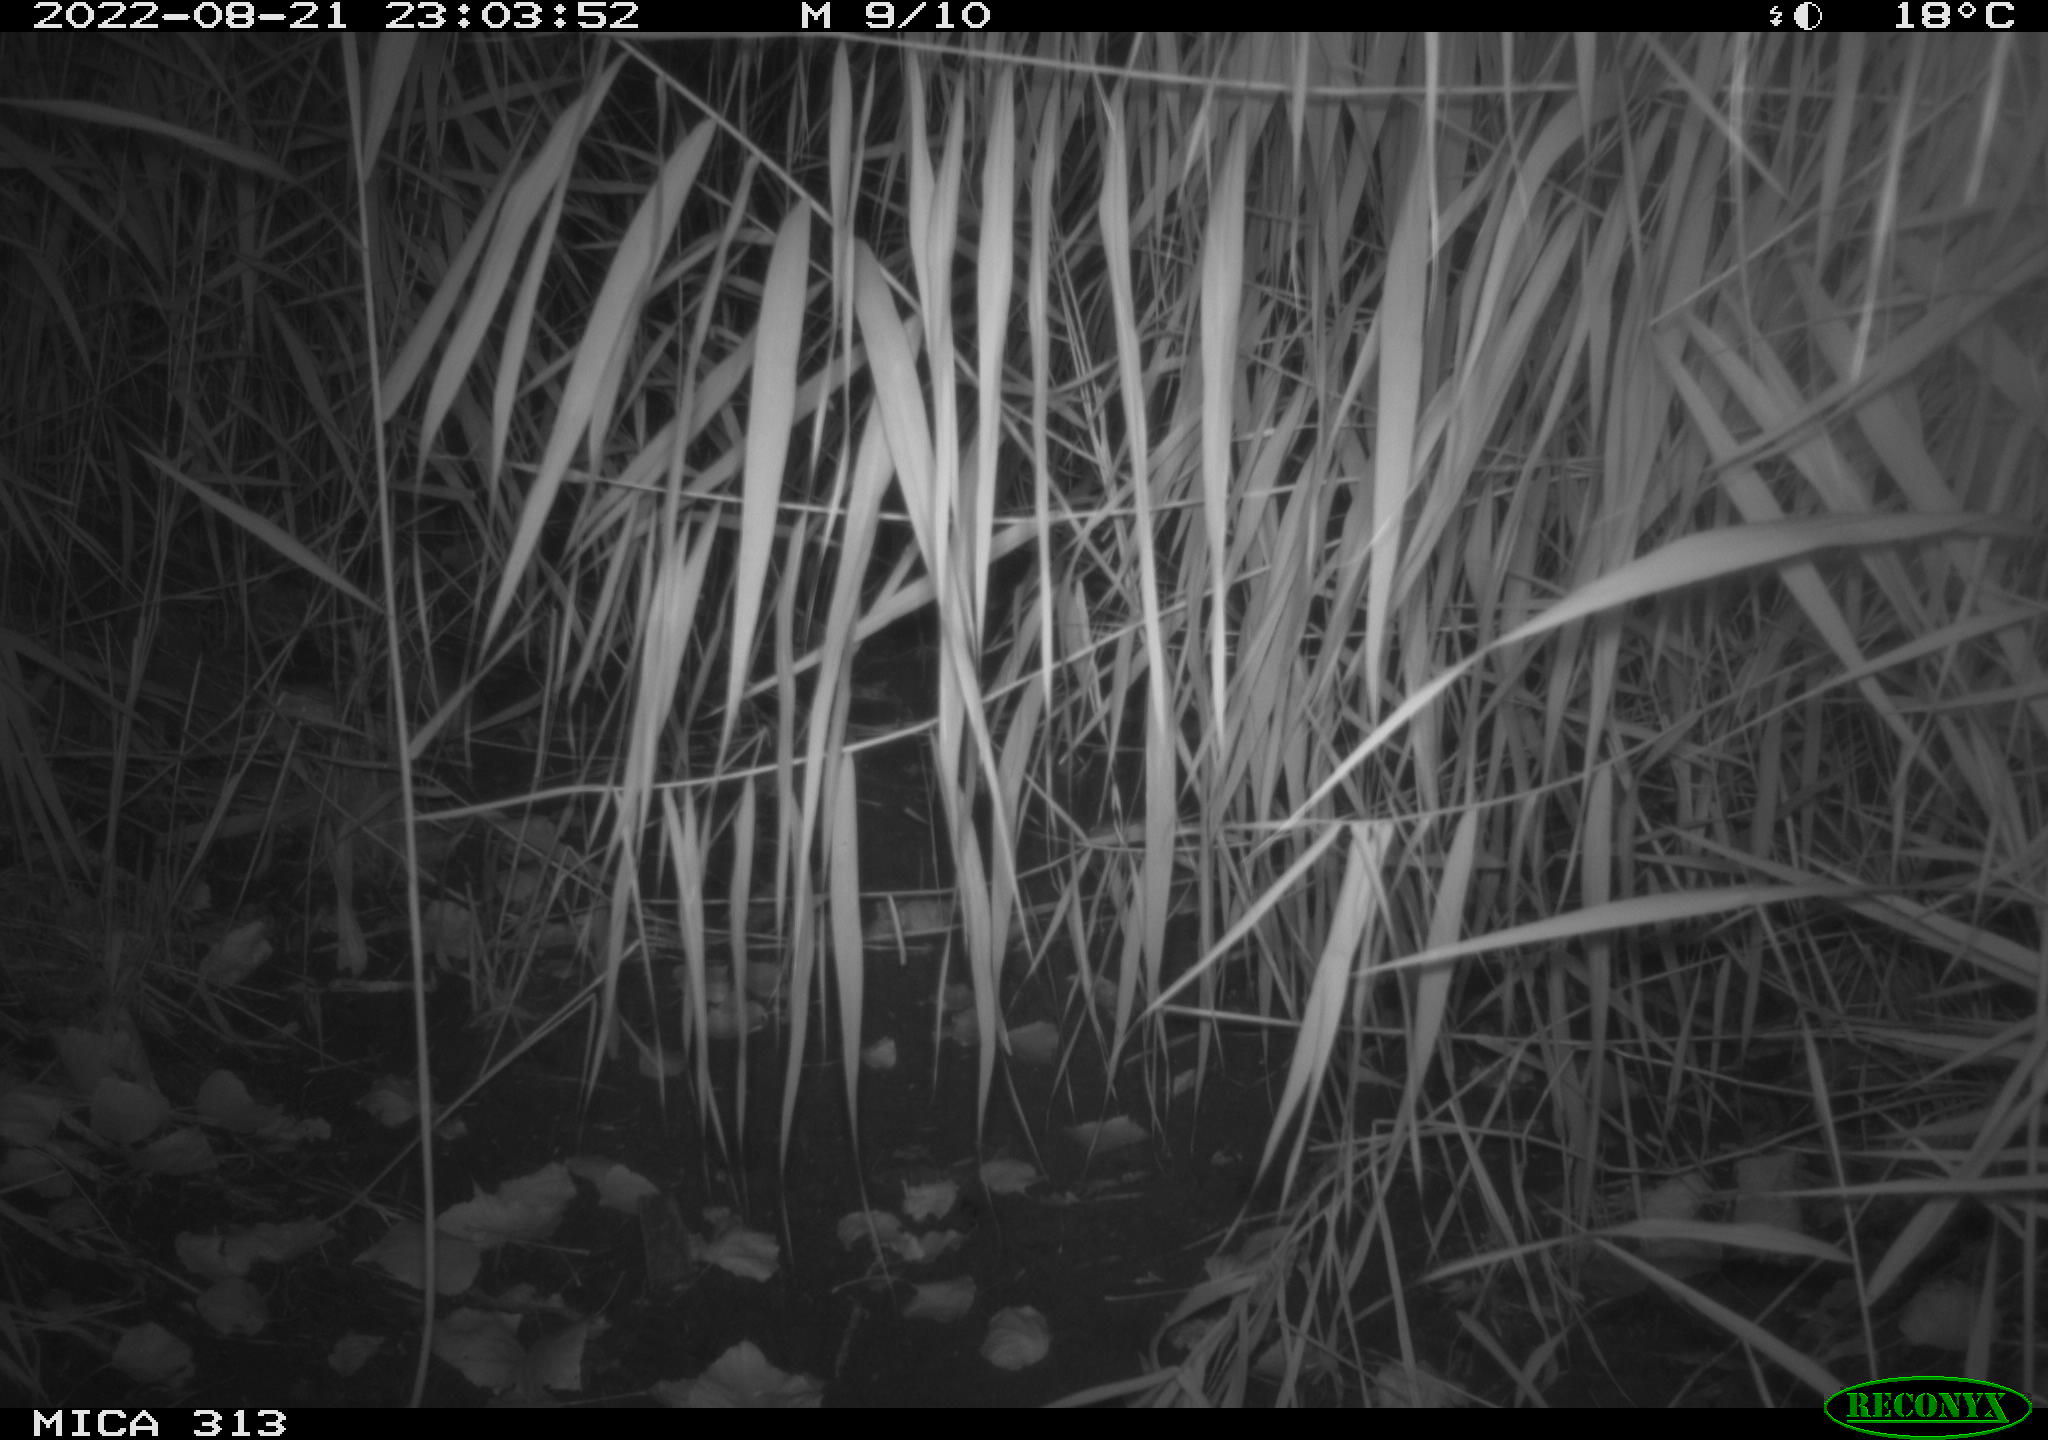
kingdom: Animalia
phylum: Chordata
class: Mammalia
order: Rodentia
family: Muridae
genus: Rattus
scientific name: Rattus norvegicus
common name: Brown rat
